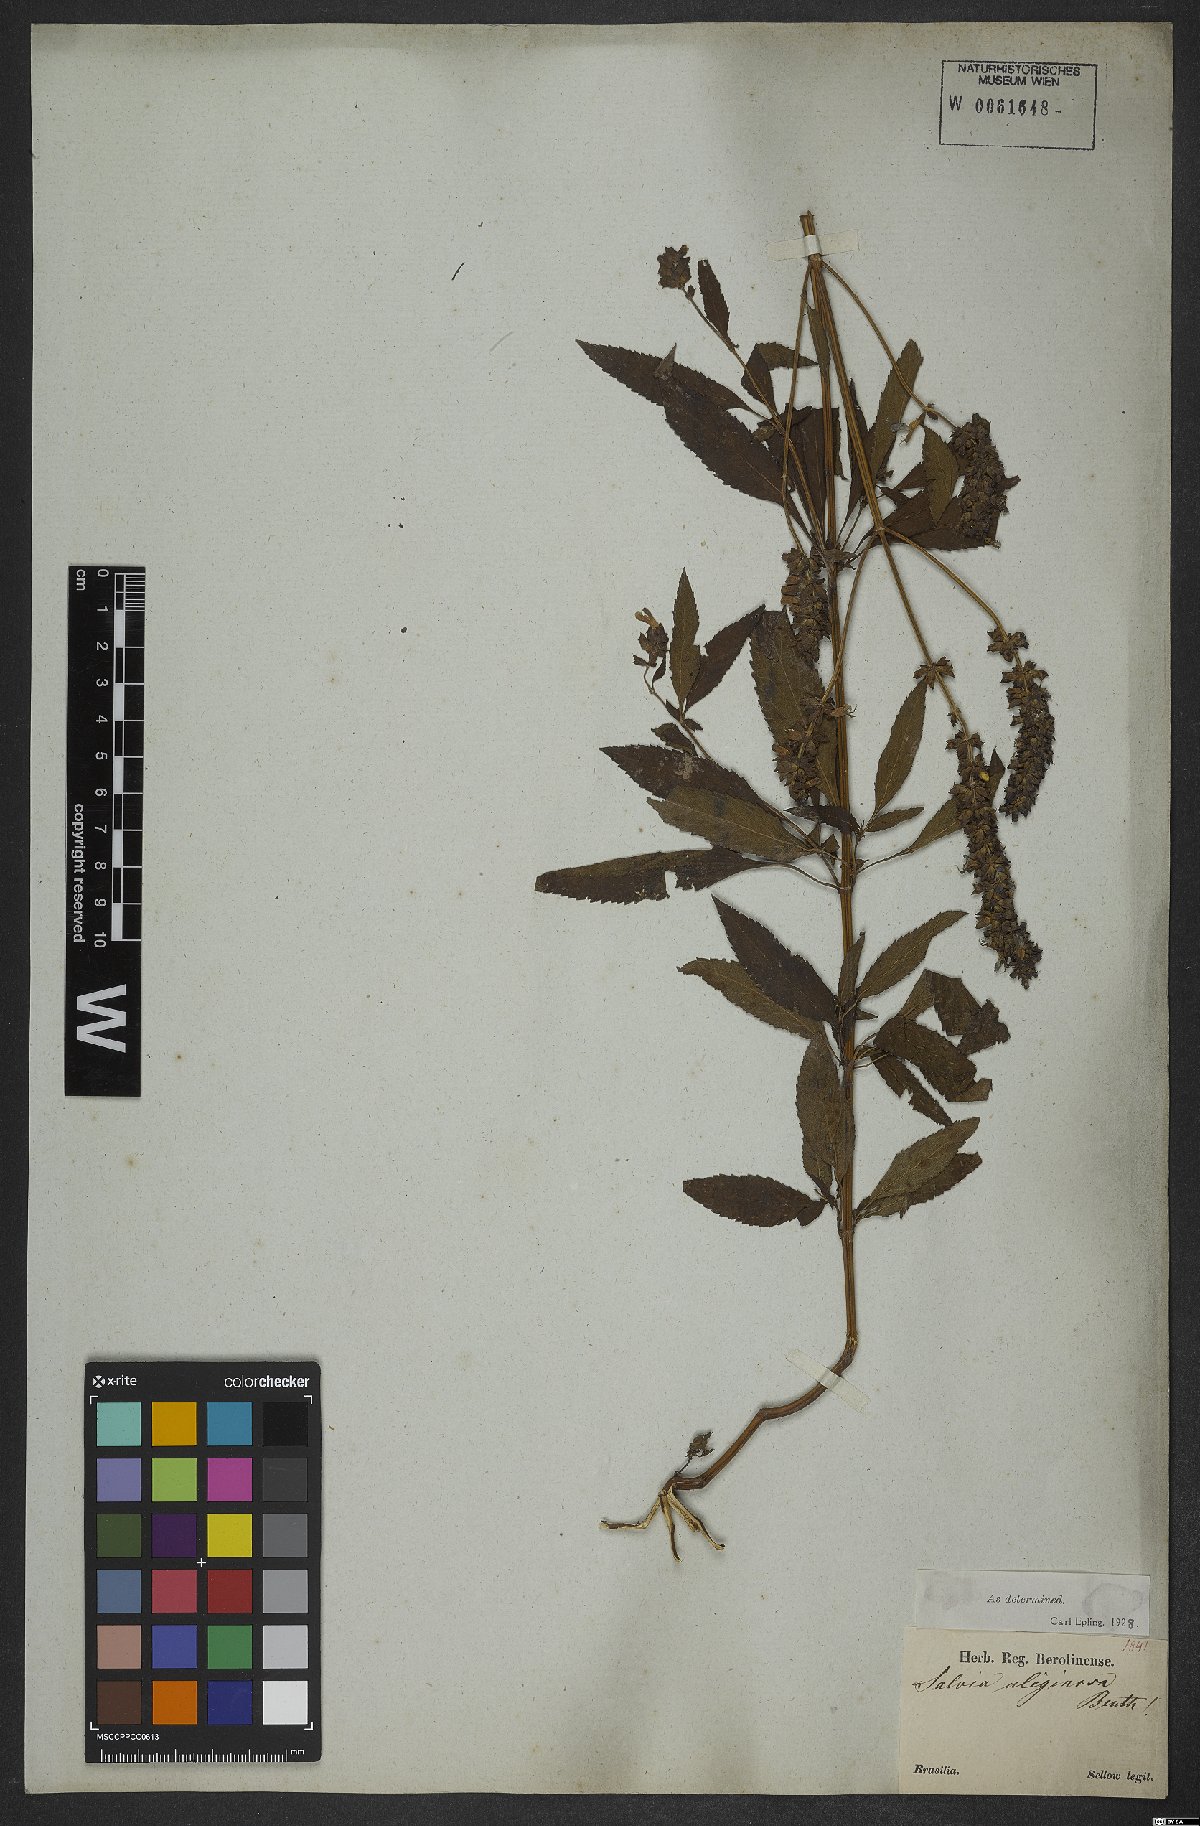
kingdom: Plantae
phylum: Tracheophyta
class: Magnoliopsida
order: Lamiales
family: Lamiaceae
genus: Salvia
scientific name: Salvia uliginosa
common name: Bog sage
